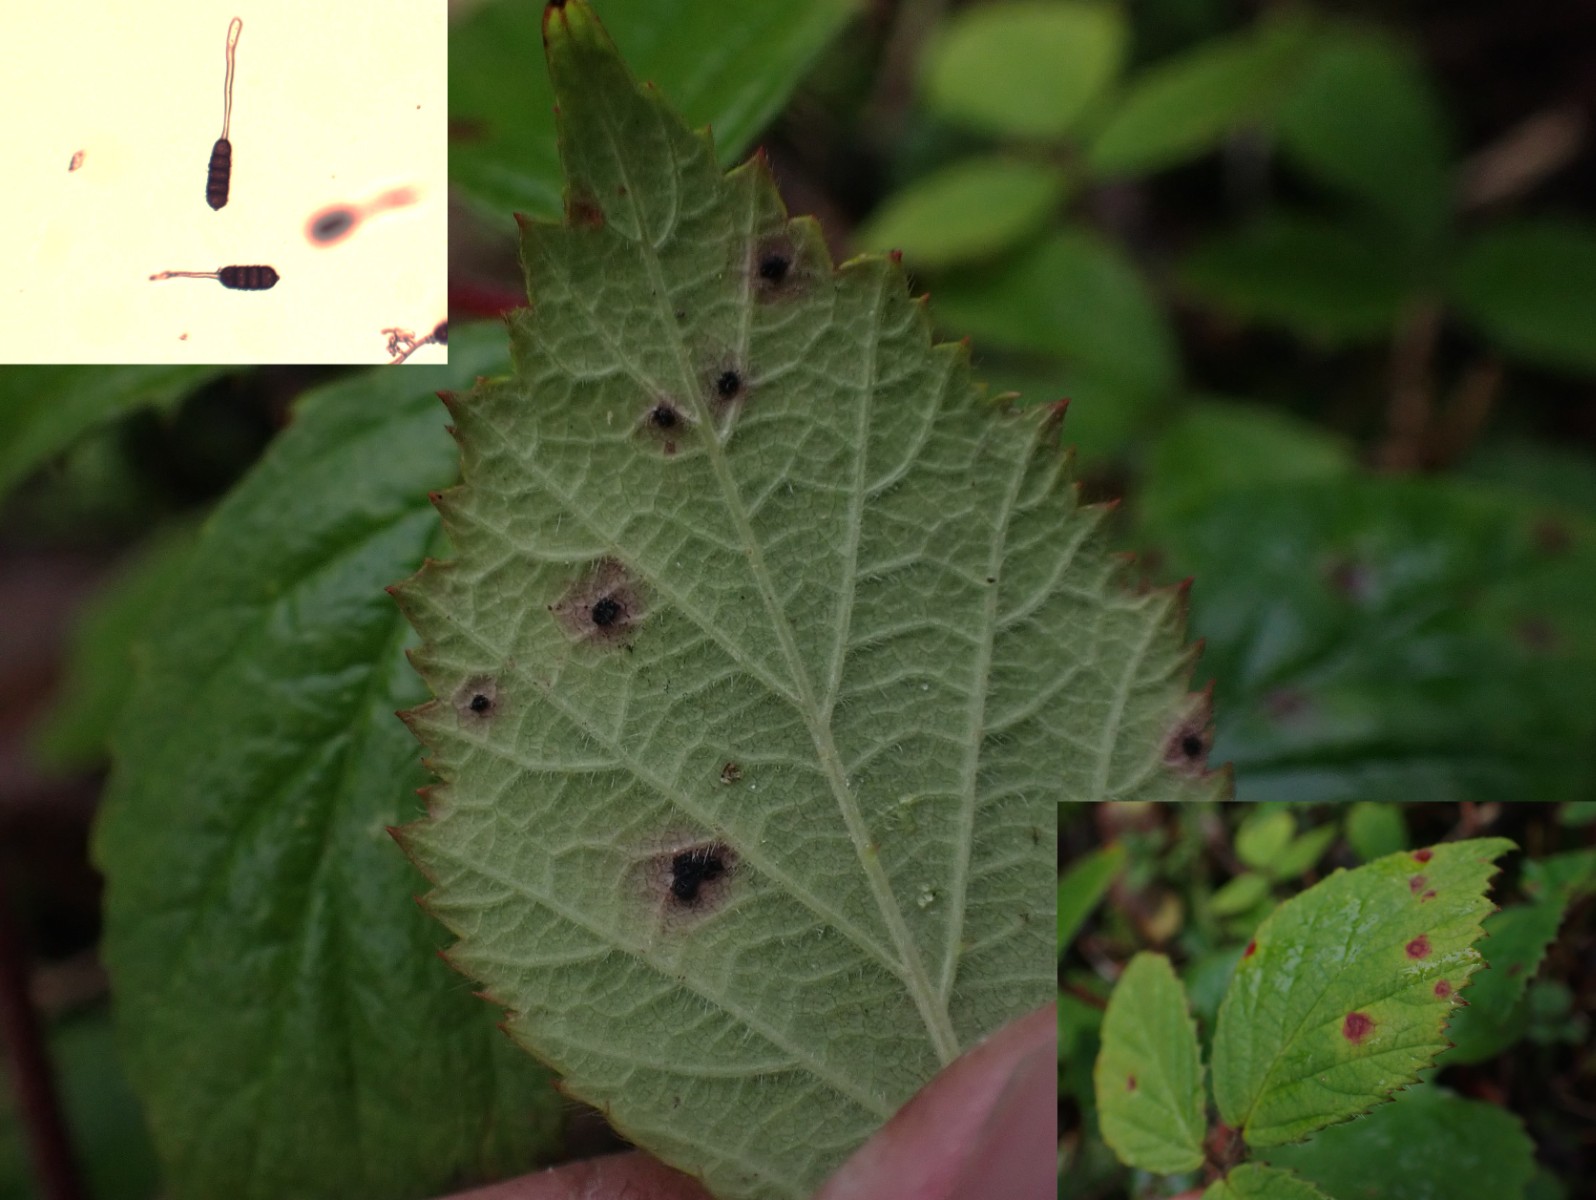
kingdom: Fungi
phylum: Basidiomycota
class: Pucciniomycetes
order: Pucciniales
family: Phragmidiaceae
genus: Phragmidium
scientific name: Phragmidium violaceum
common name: violet flercellerust
